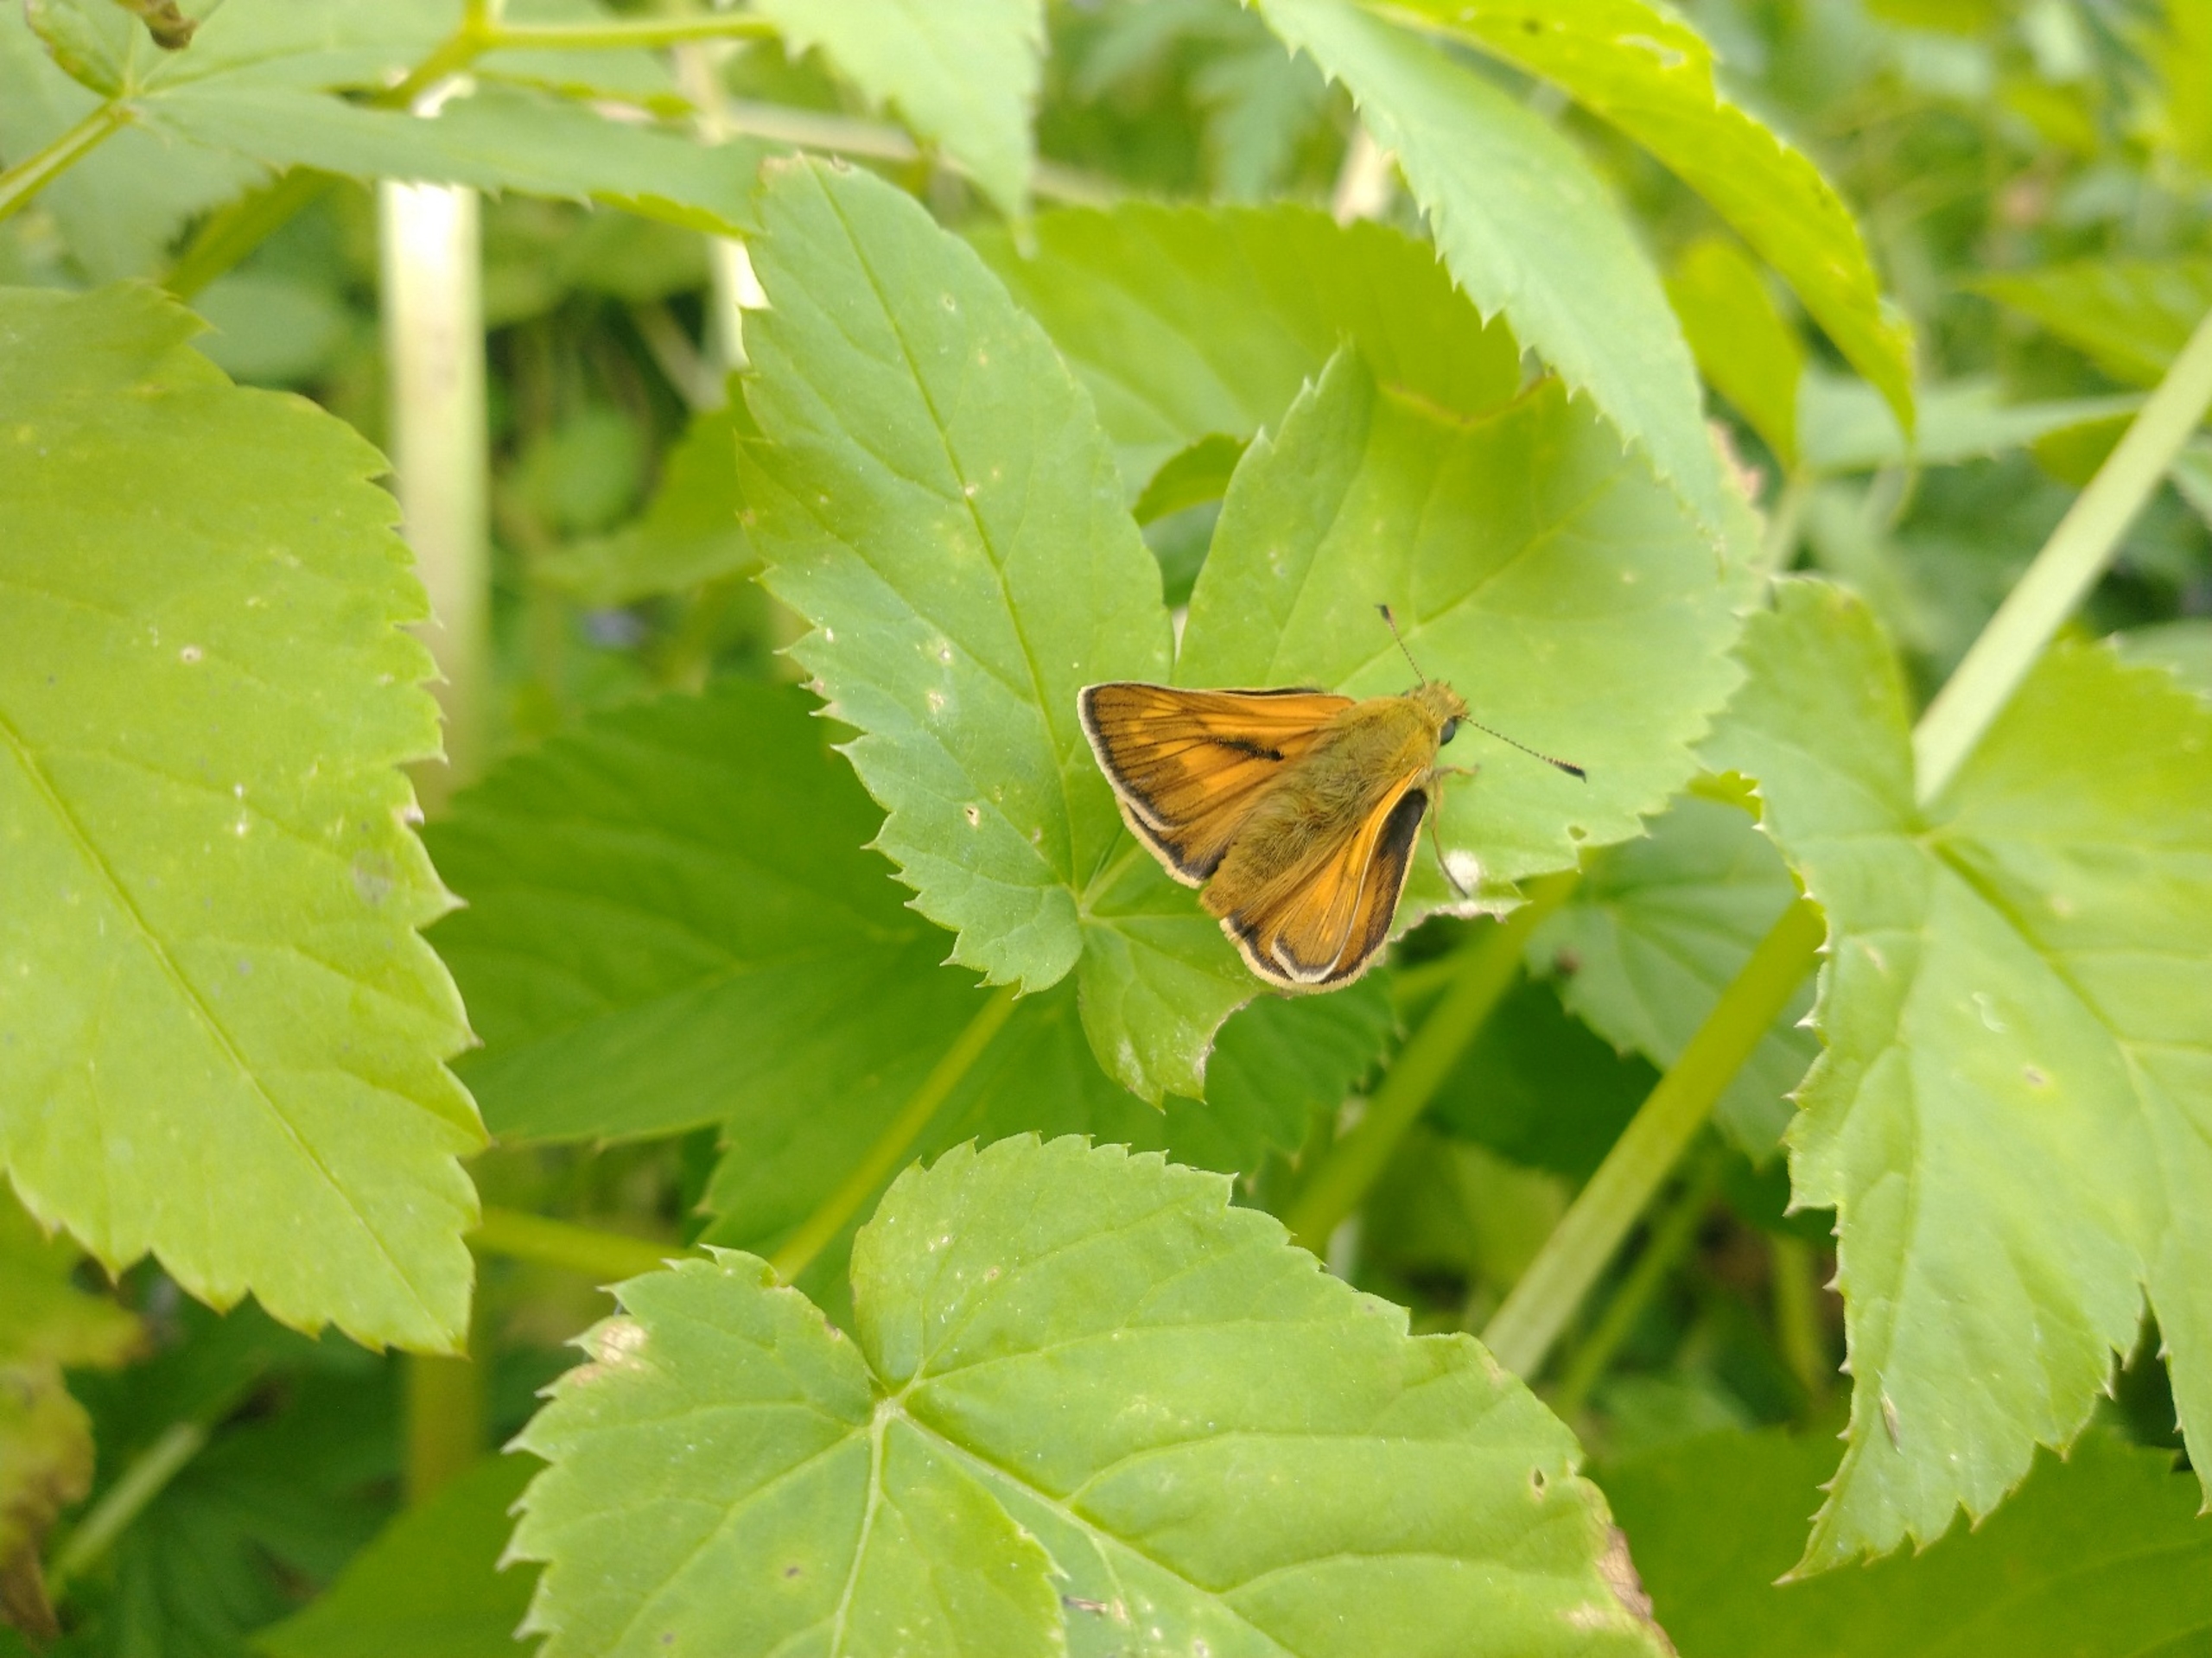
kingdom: Animalia
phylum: Arthropoda
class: Insecta
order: Lepidoptera
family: Hesperiidae
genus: Ochlodes
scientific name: Ochlodes venata
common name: Stor bredpande
